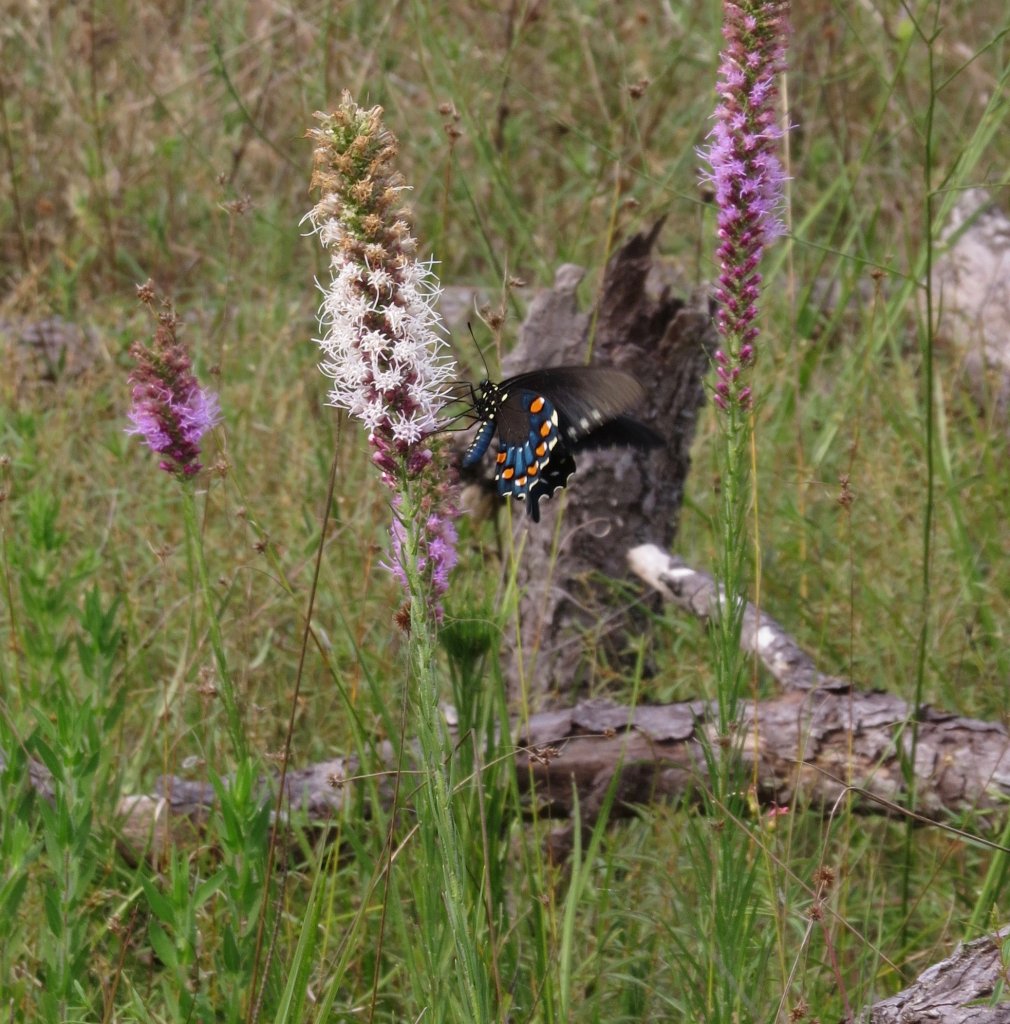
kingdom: Animalia
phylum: Arthropoda
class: Insecta
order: Lepidoptera
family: Papilionidae
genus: Battus
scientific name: Battus philenor
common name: Pipevine Swallowtail
